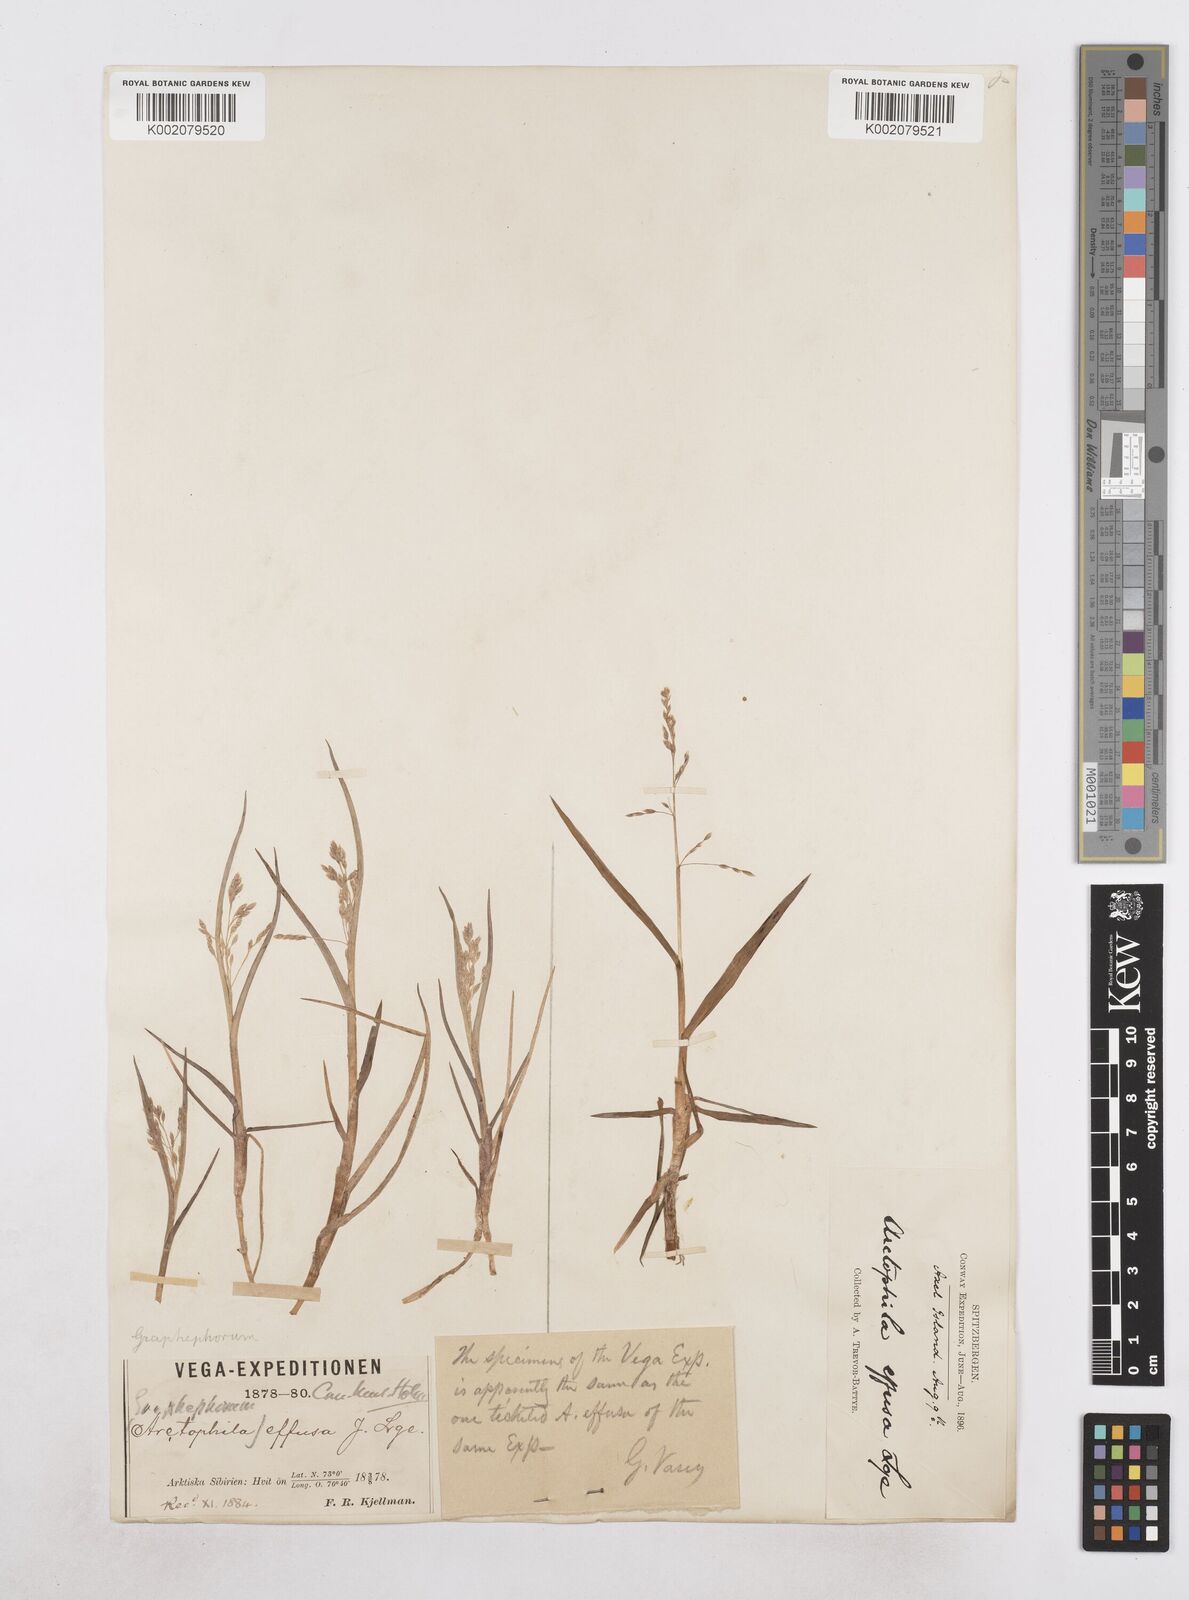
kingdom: Plantae
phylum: Tracheophyta
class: Liliopsida
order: Poales
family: Poaceae
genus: Dupontia
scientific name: Dupontia fulva
